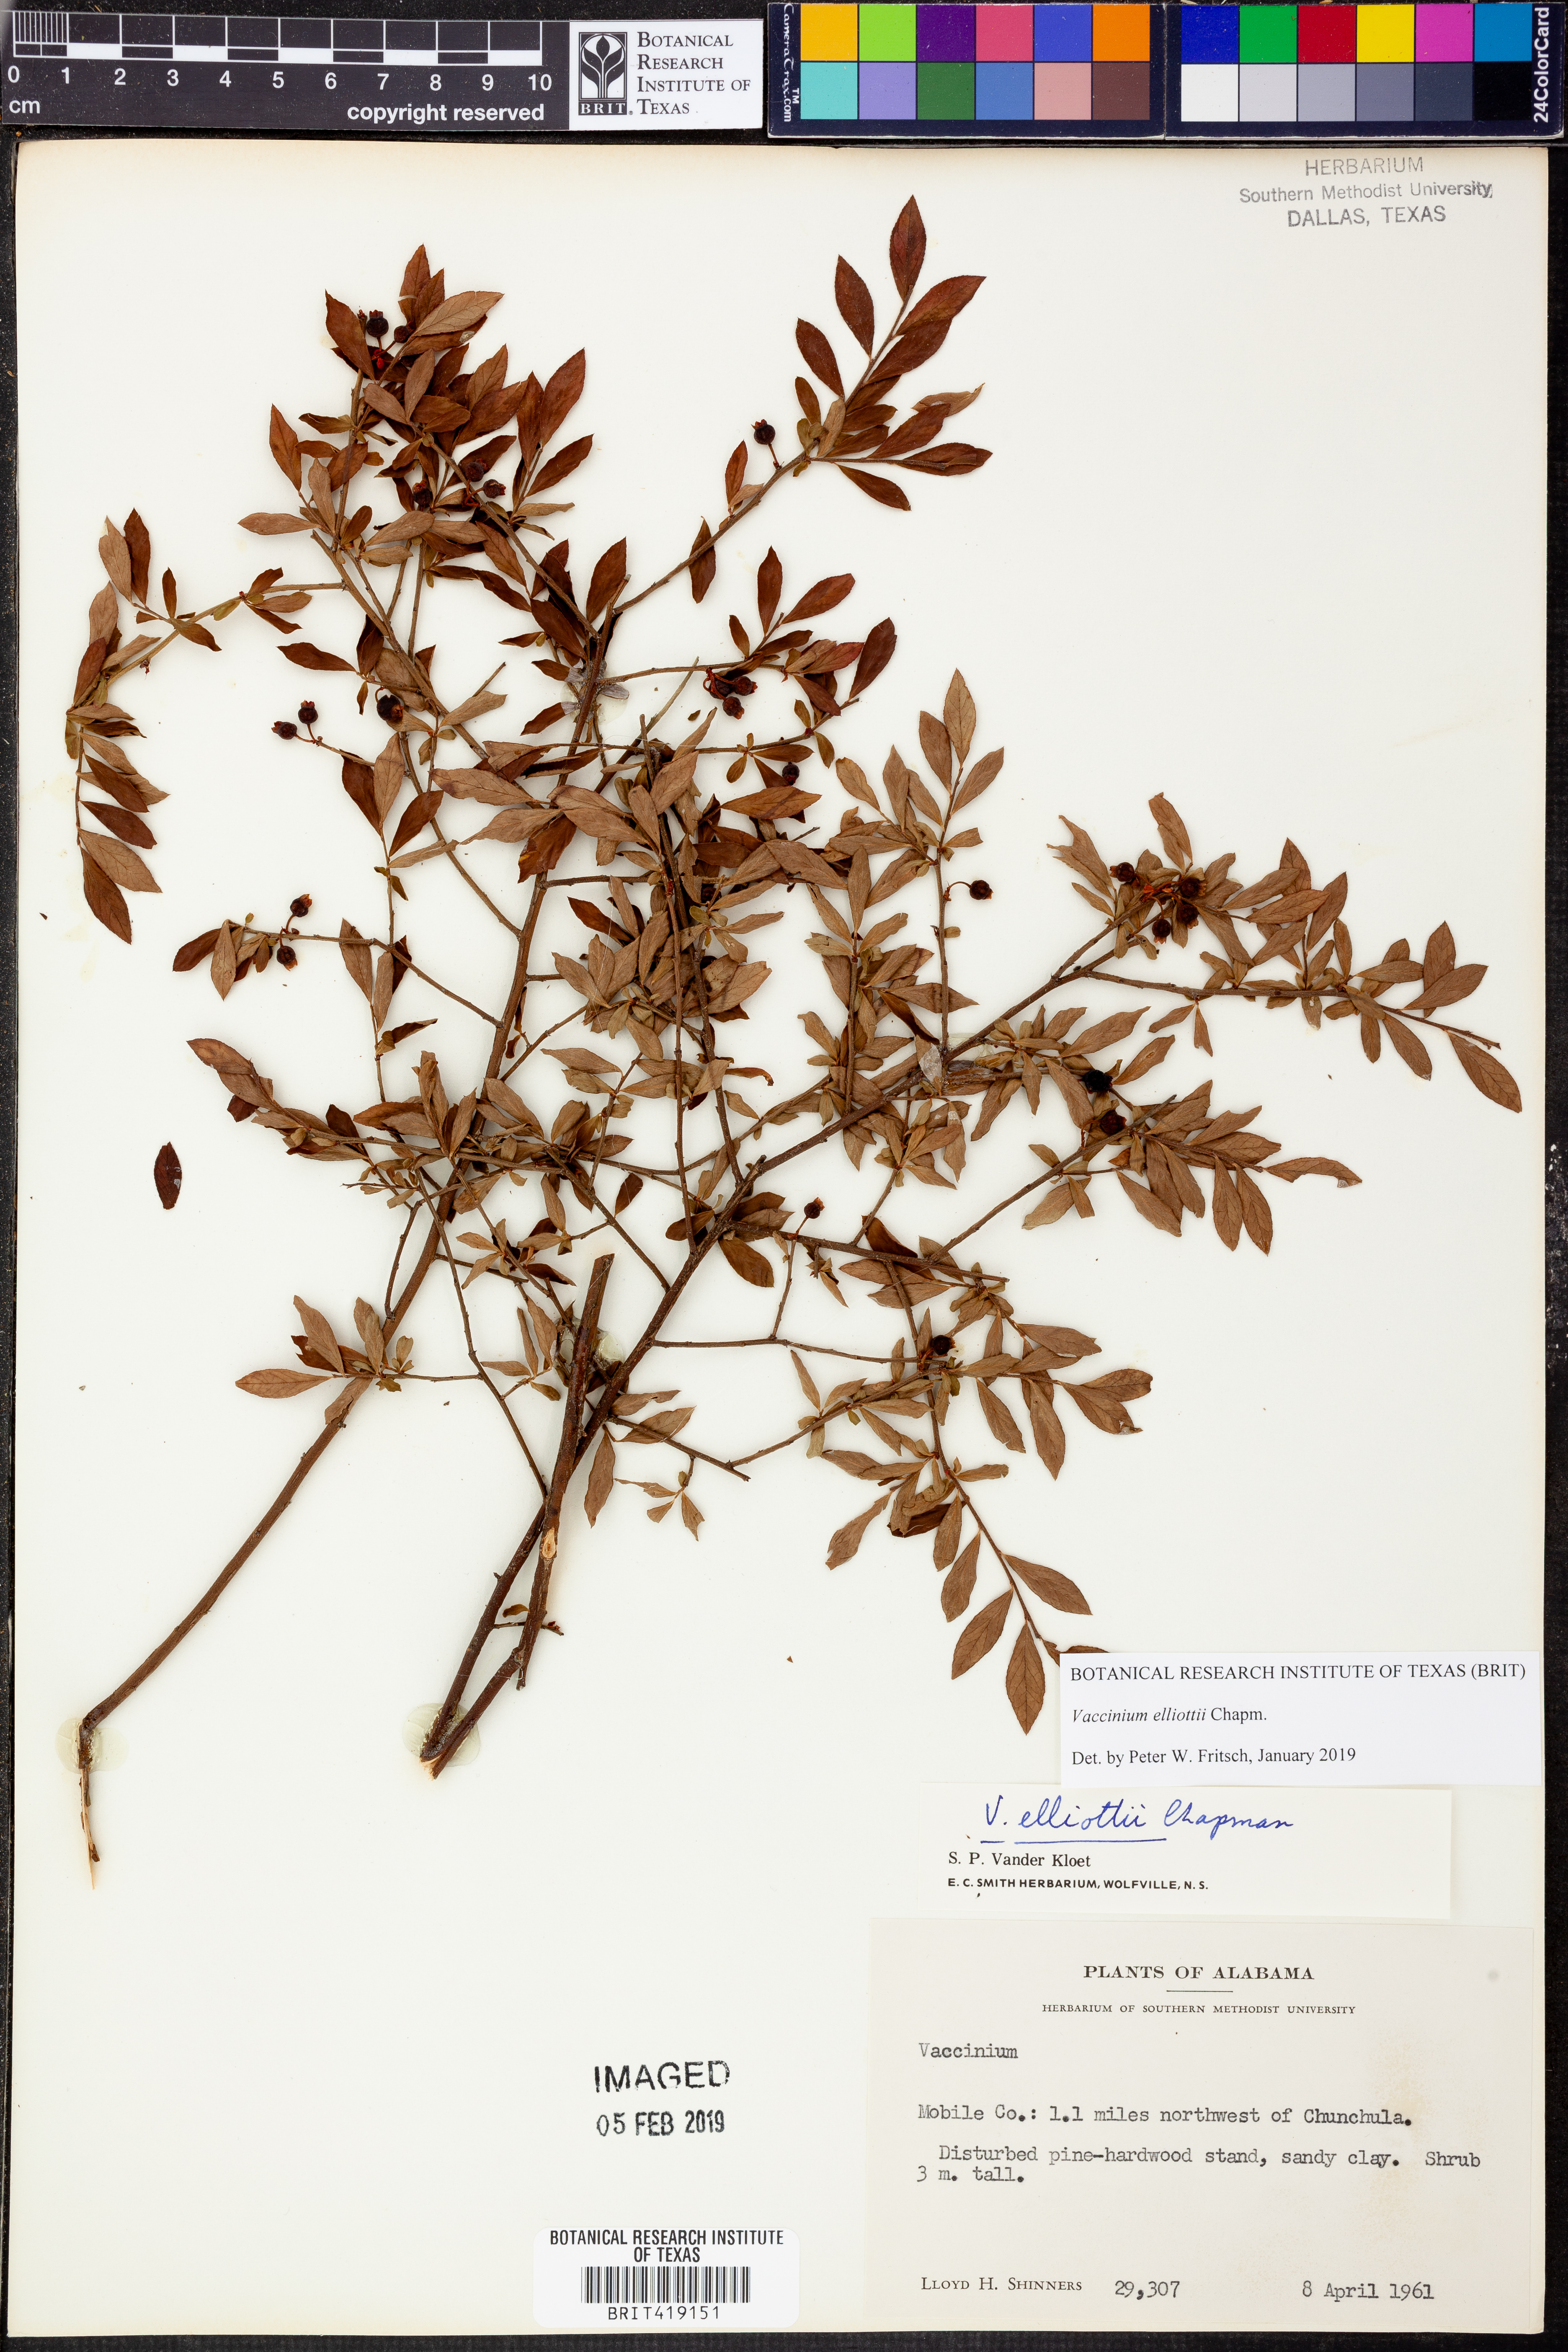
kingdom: Plantae
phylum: Tracheophyta
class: Magnoliopsida
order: Ericales
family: Ericaceae
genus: Vaccinium
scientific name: Vaccinium corymbosum
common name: Blueberry
